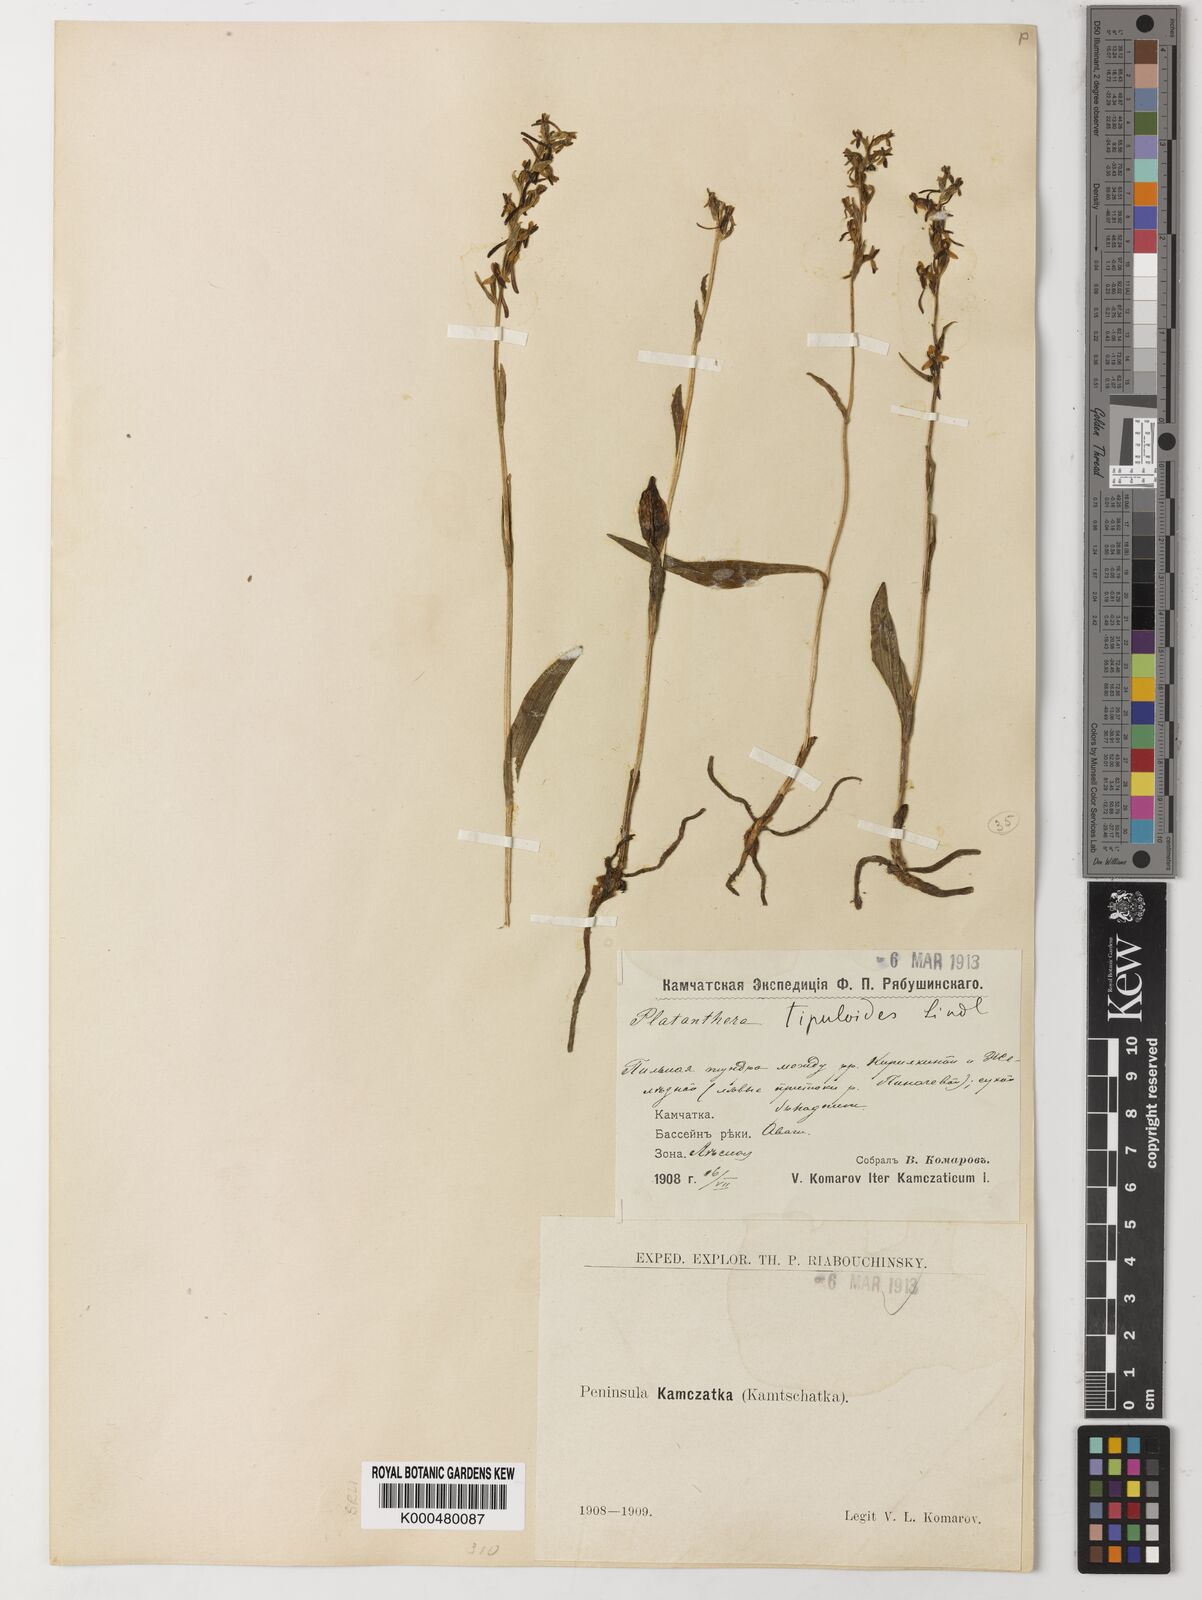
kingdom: Plantae
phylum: Tracheophyta
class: Liliopsida
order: Asparagales
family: Orchidaceae
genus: Platanthera
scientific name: Platanthera tipuloides
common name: Aleutian bog orchid
